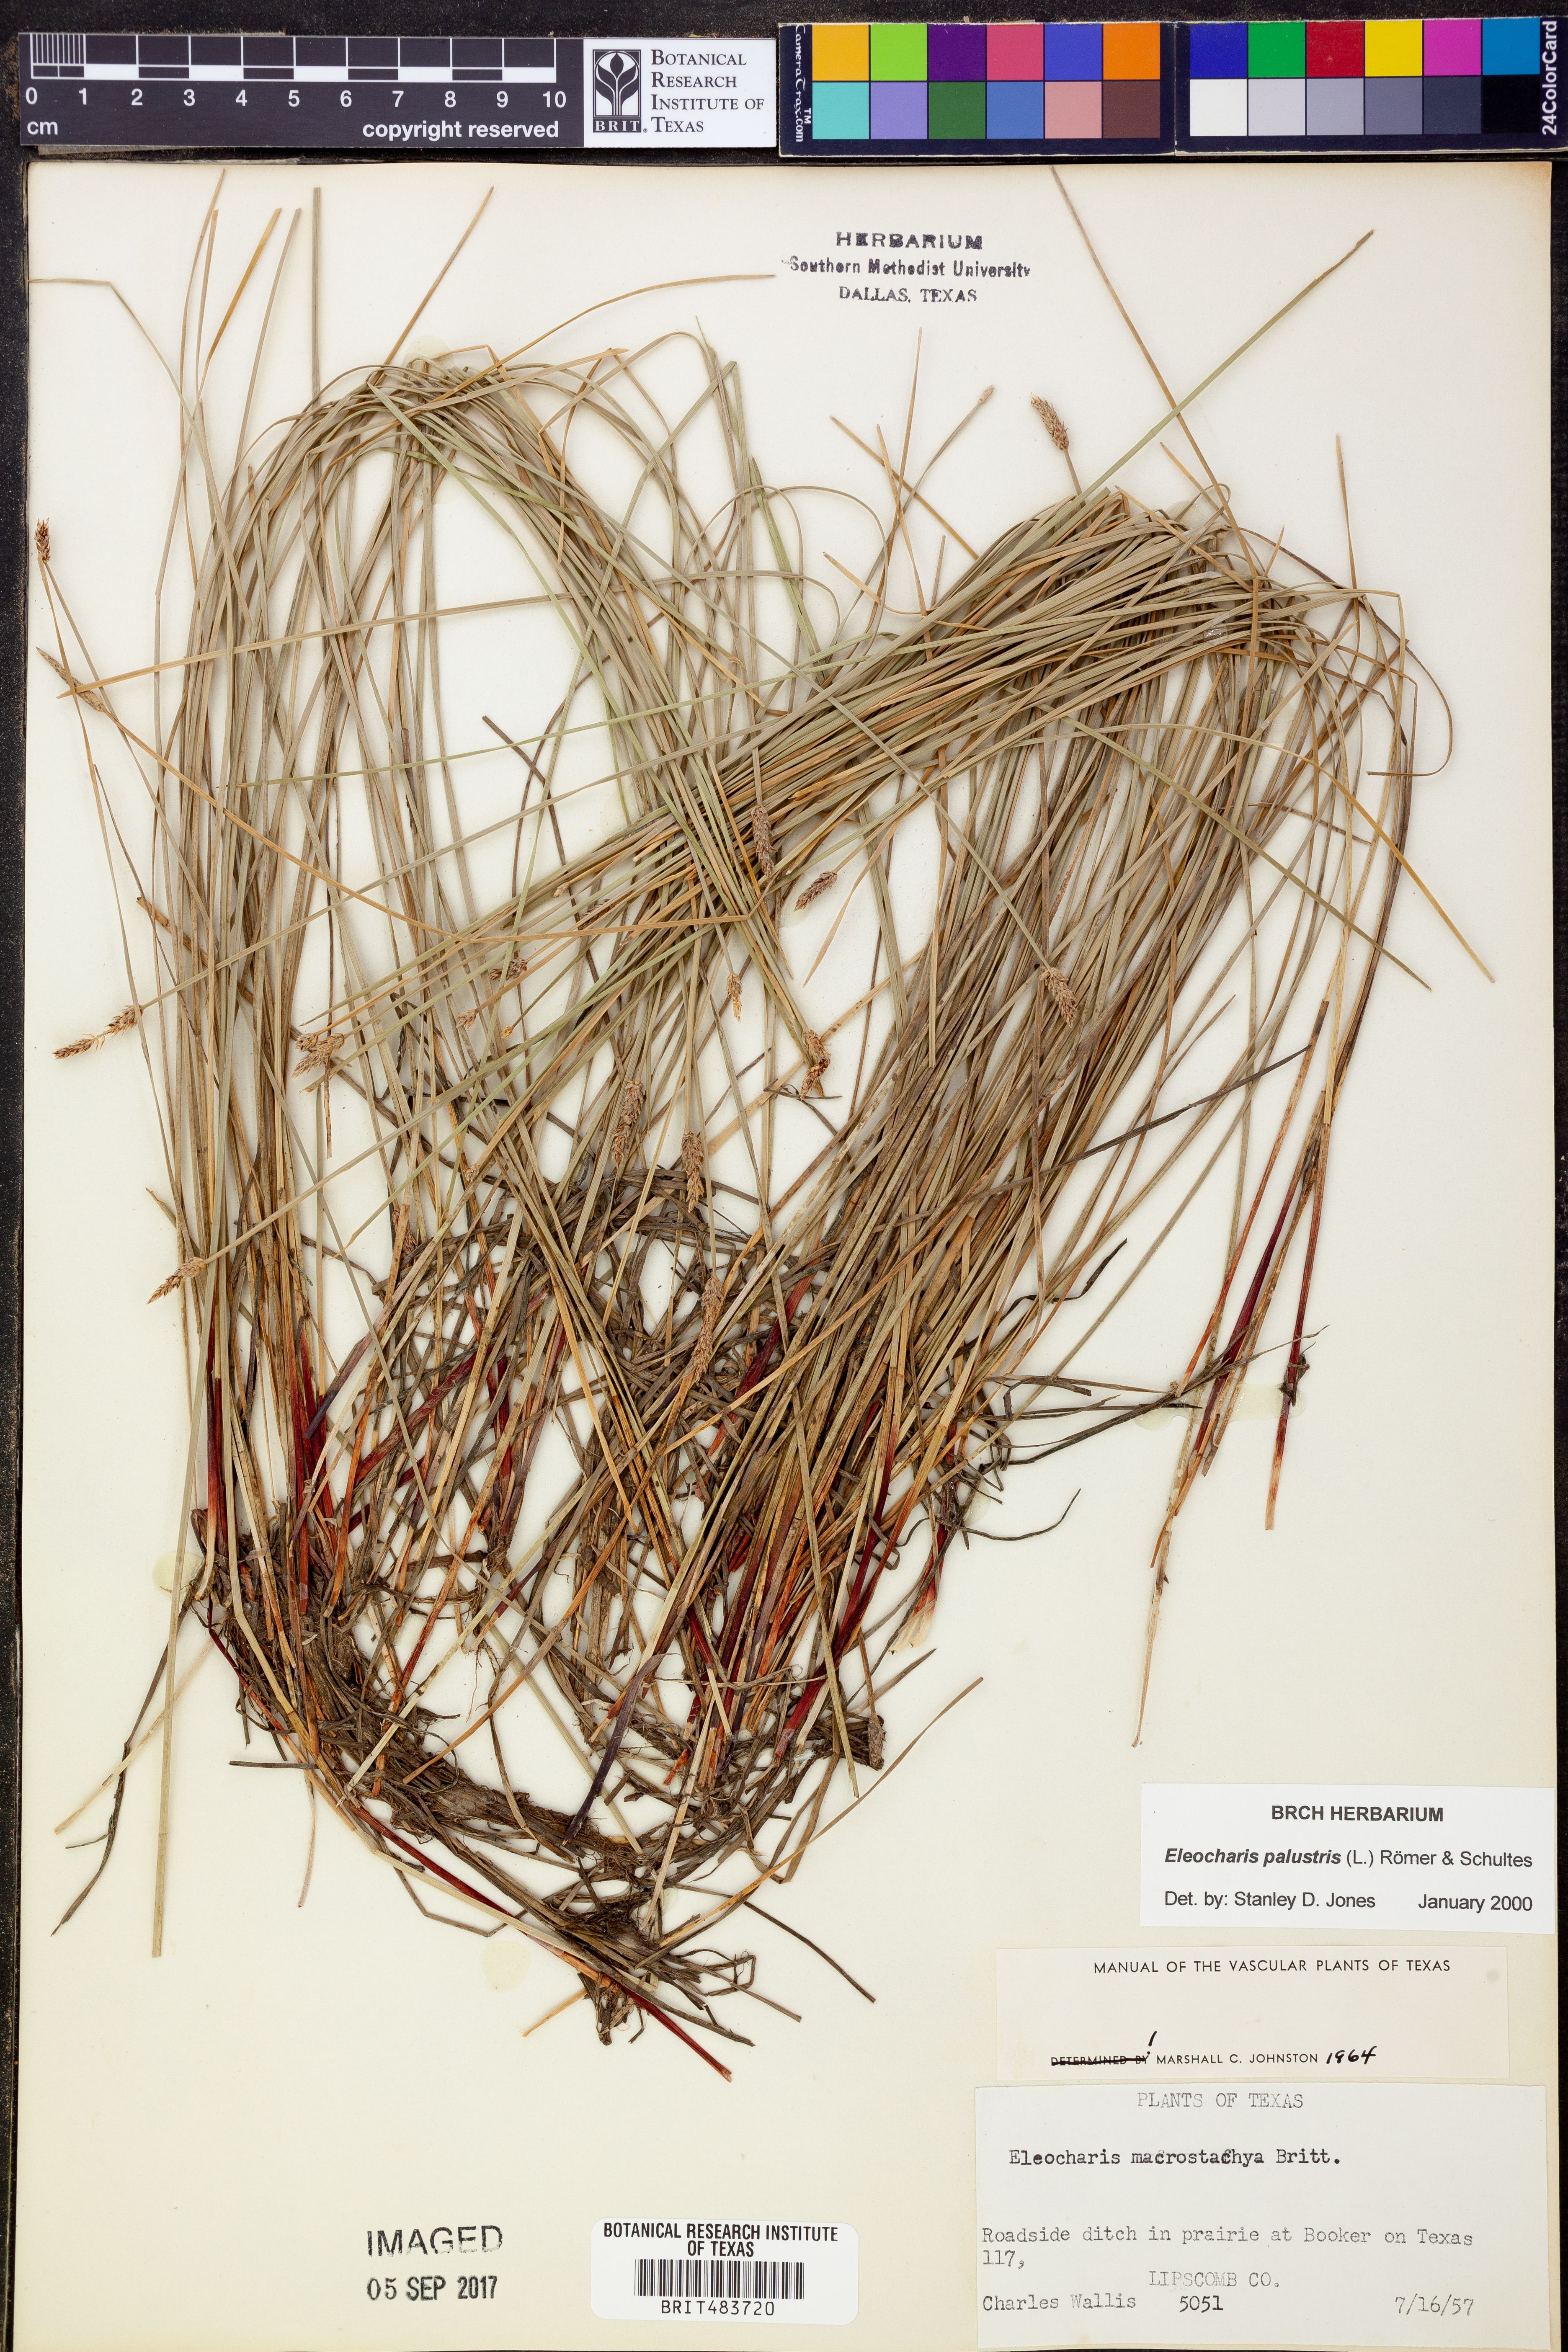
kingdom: Plantae
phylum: Tracheophyta
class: Liliopsida
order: Poales
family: Cyperaceae
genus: Eleocharis
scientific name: Eleocharis macrostachya
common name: Pale spikerush
